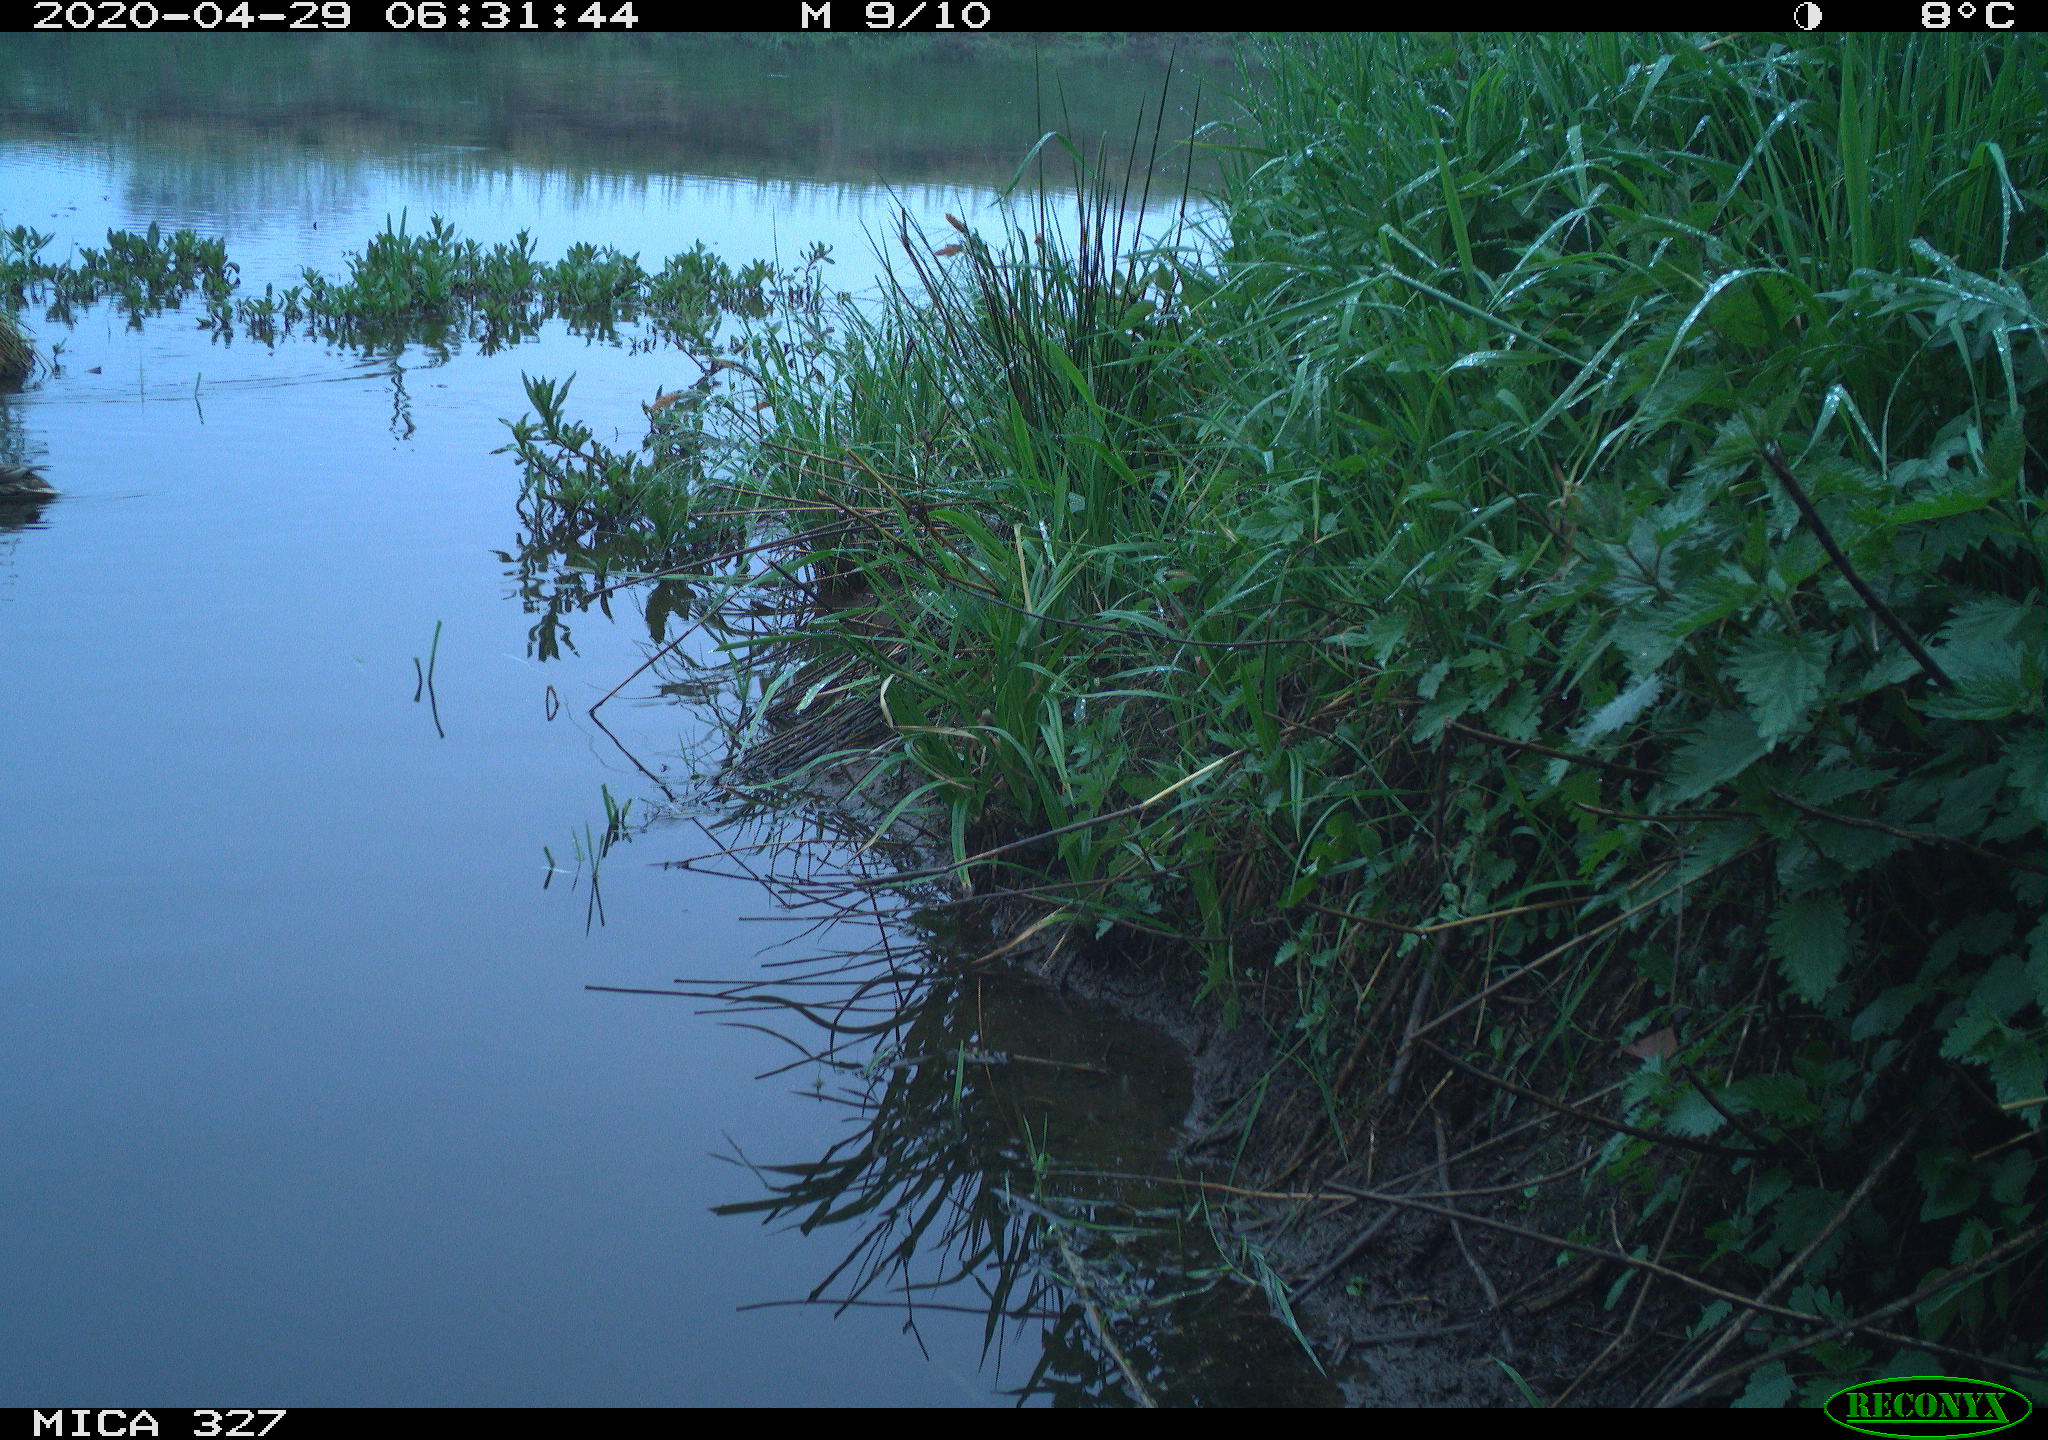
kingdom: Animalia
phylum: Chordata
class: Aves
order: Anseriformes
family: Anatidae
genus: Anas
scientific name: Anas platyrhynchos
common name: Mallard
